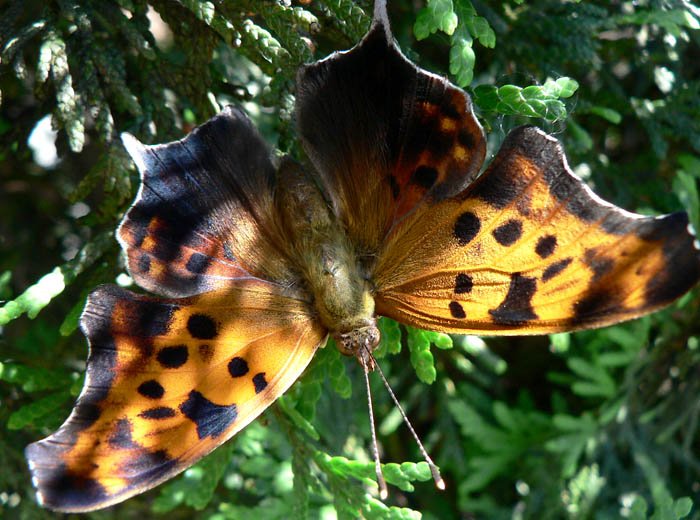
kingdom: Animalia
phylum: Arthropoda
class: Insecta
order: Lepidoptera
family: Nymphalidae
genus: Polygonia
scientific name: Polygonia interrogationis
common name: Question Mark
